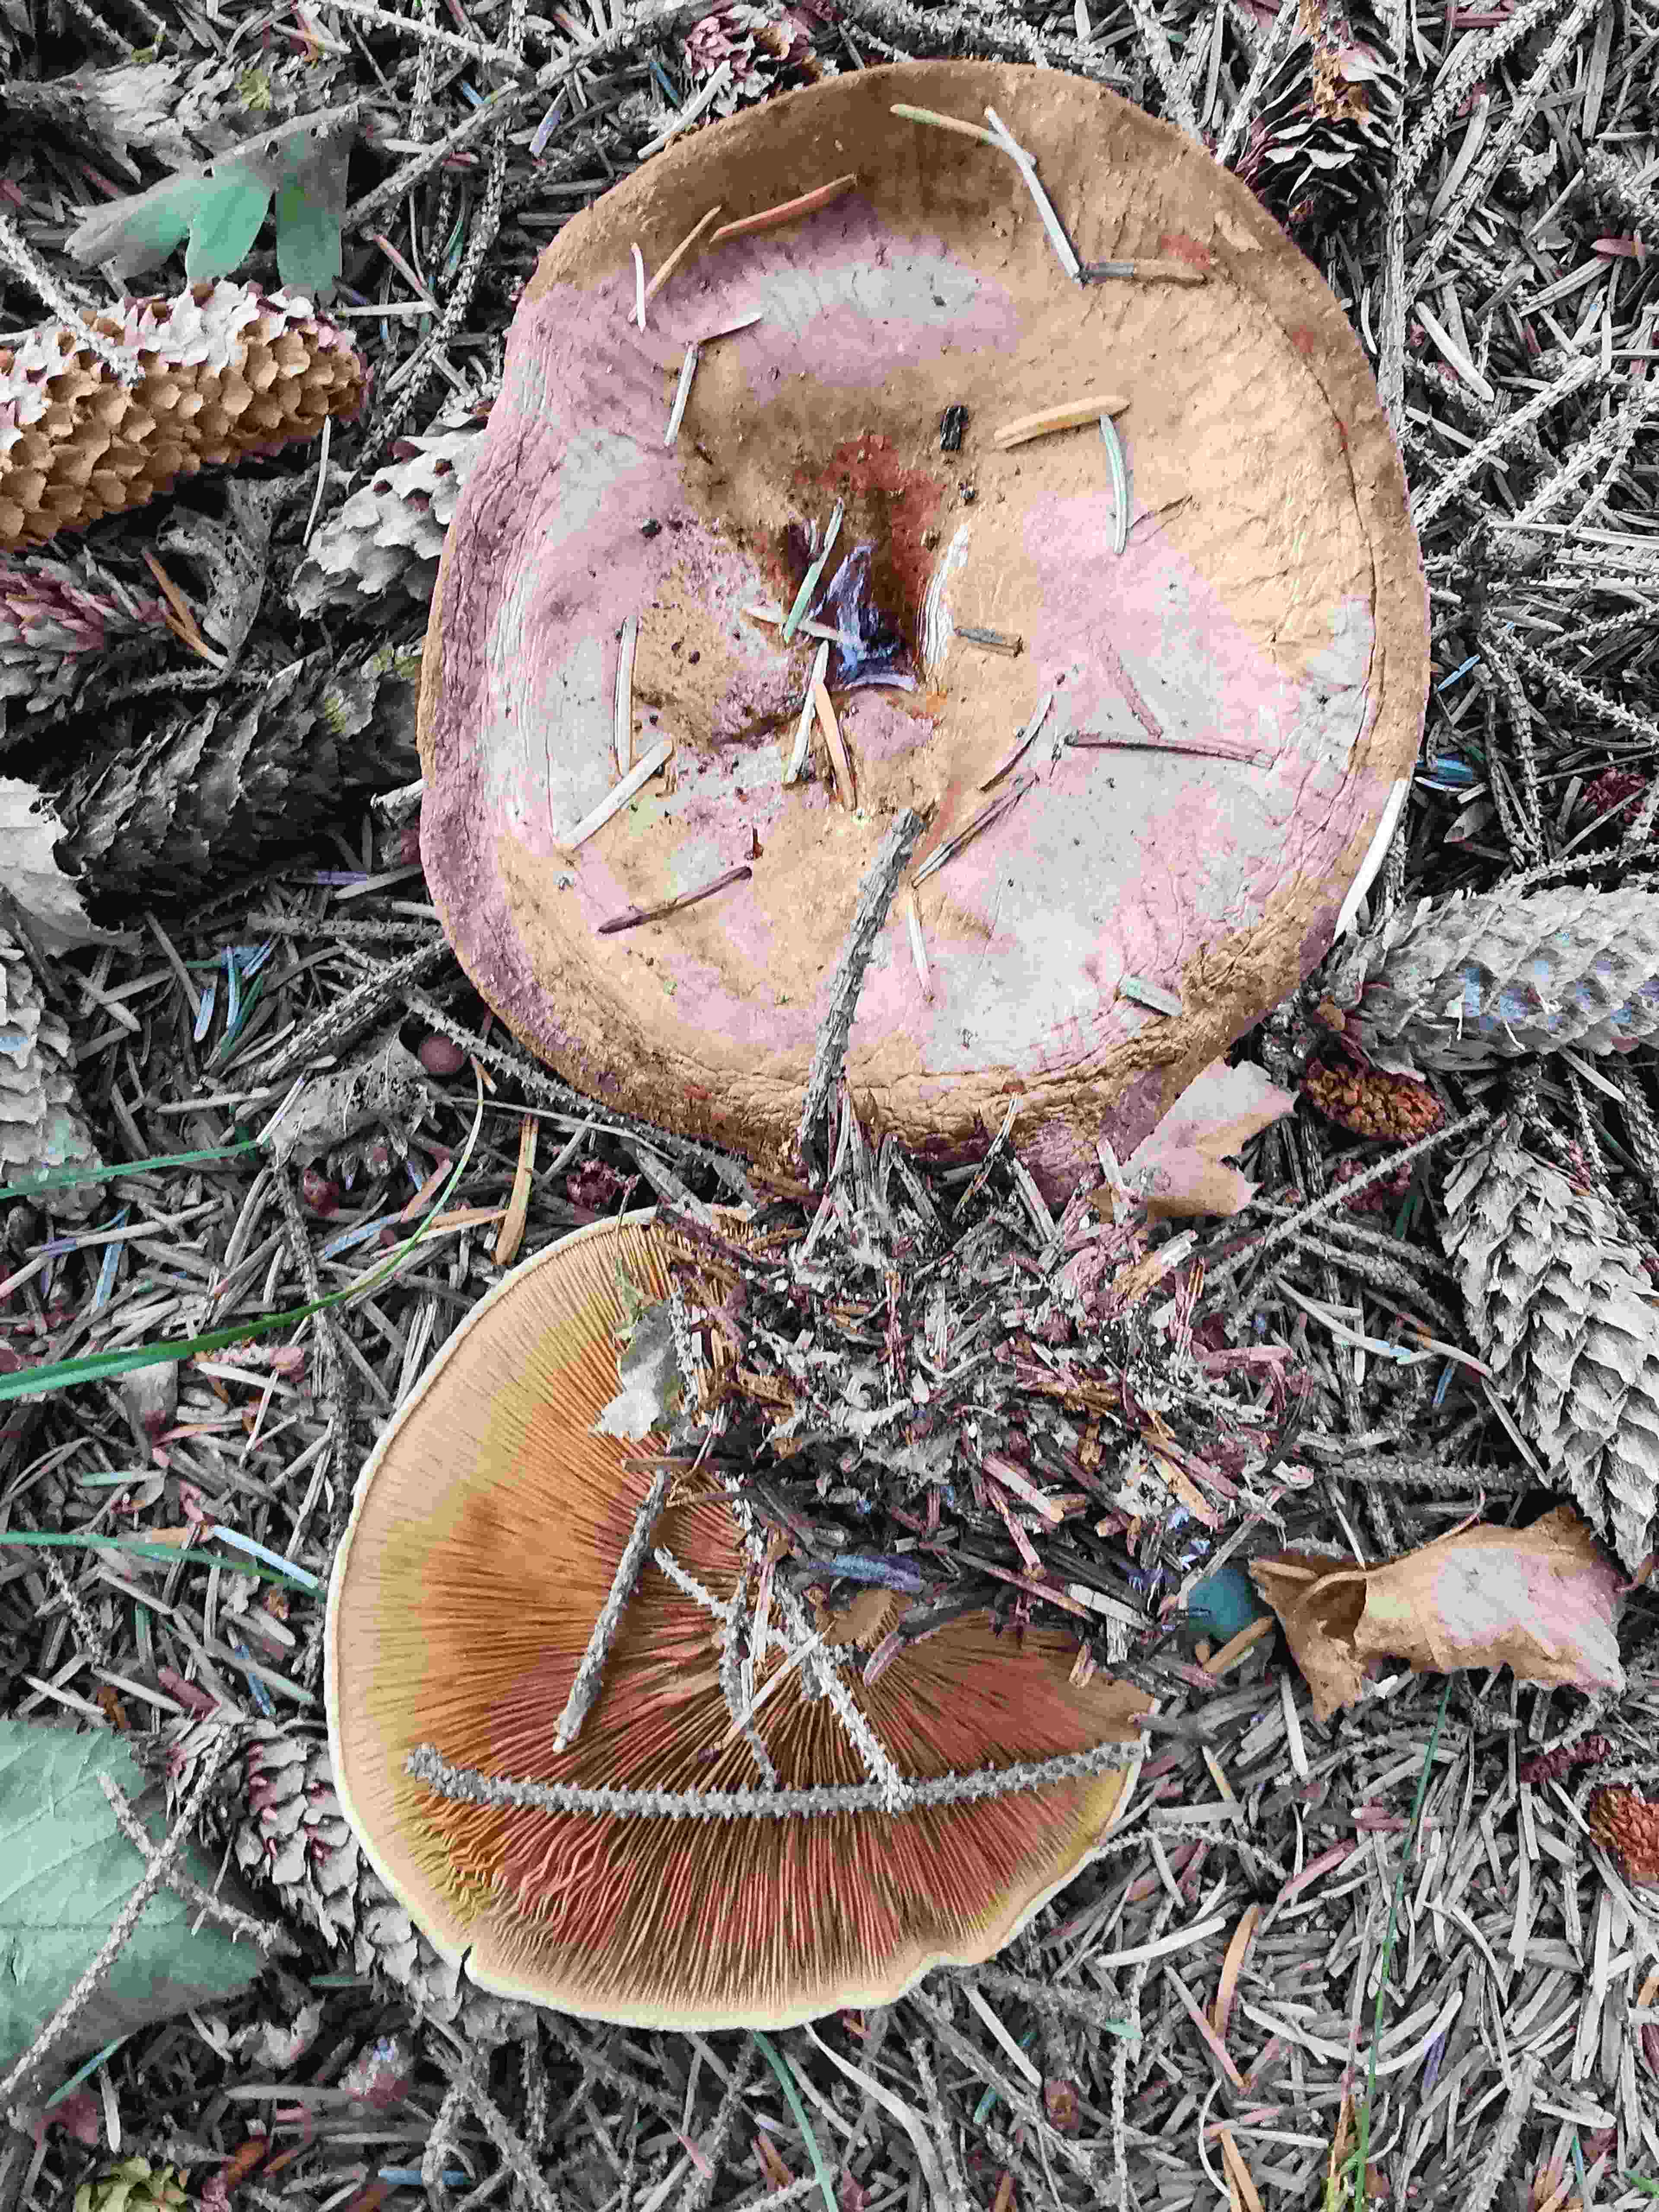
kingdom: Fungi
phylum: Basidiomycota
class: Agaricomycetes
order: Boletales
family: Paxillaceae
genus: Paxillus
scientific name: Paxillus involutus
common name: almindelig netbladhat
